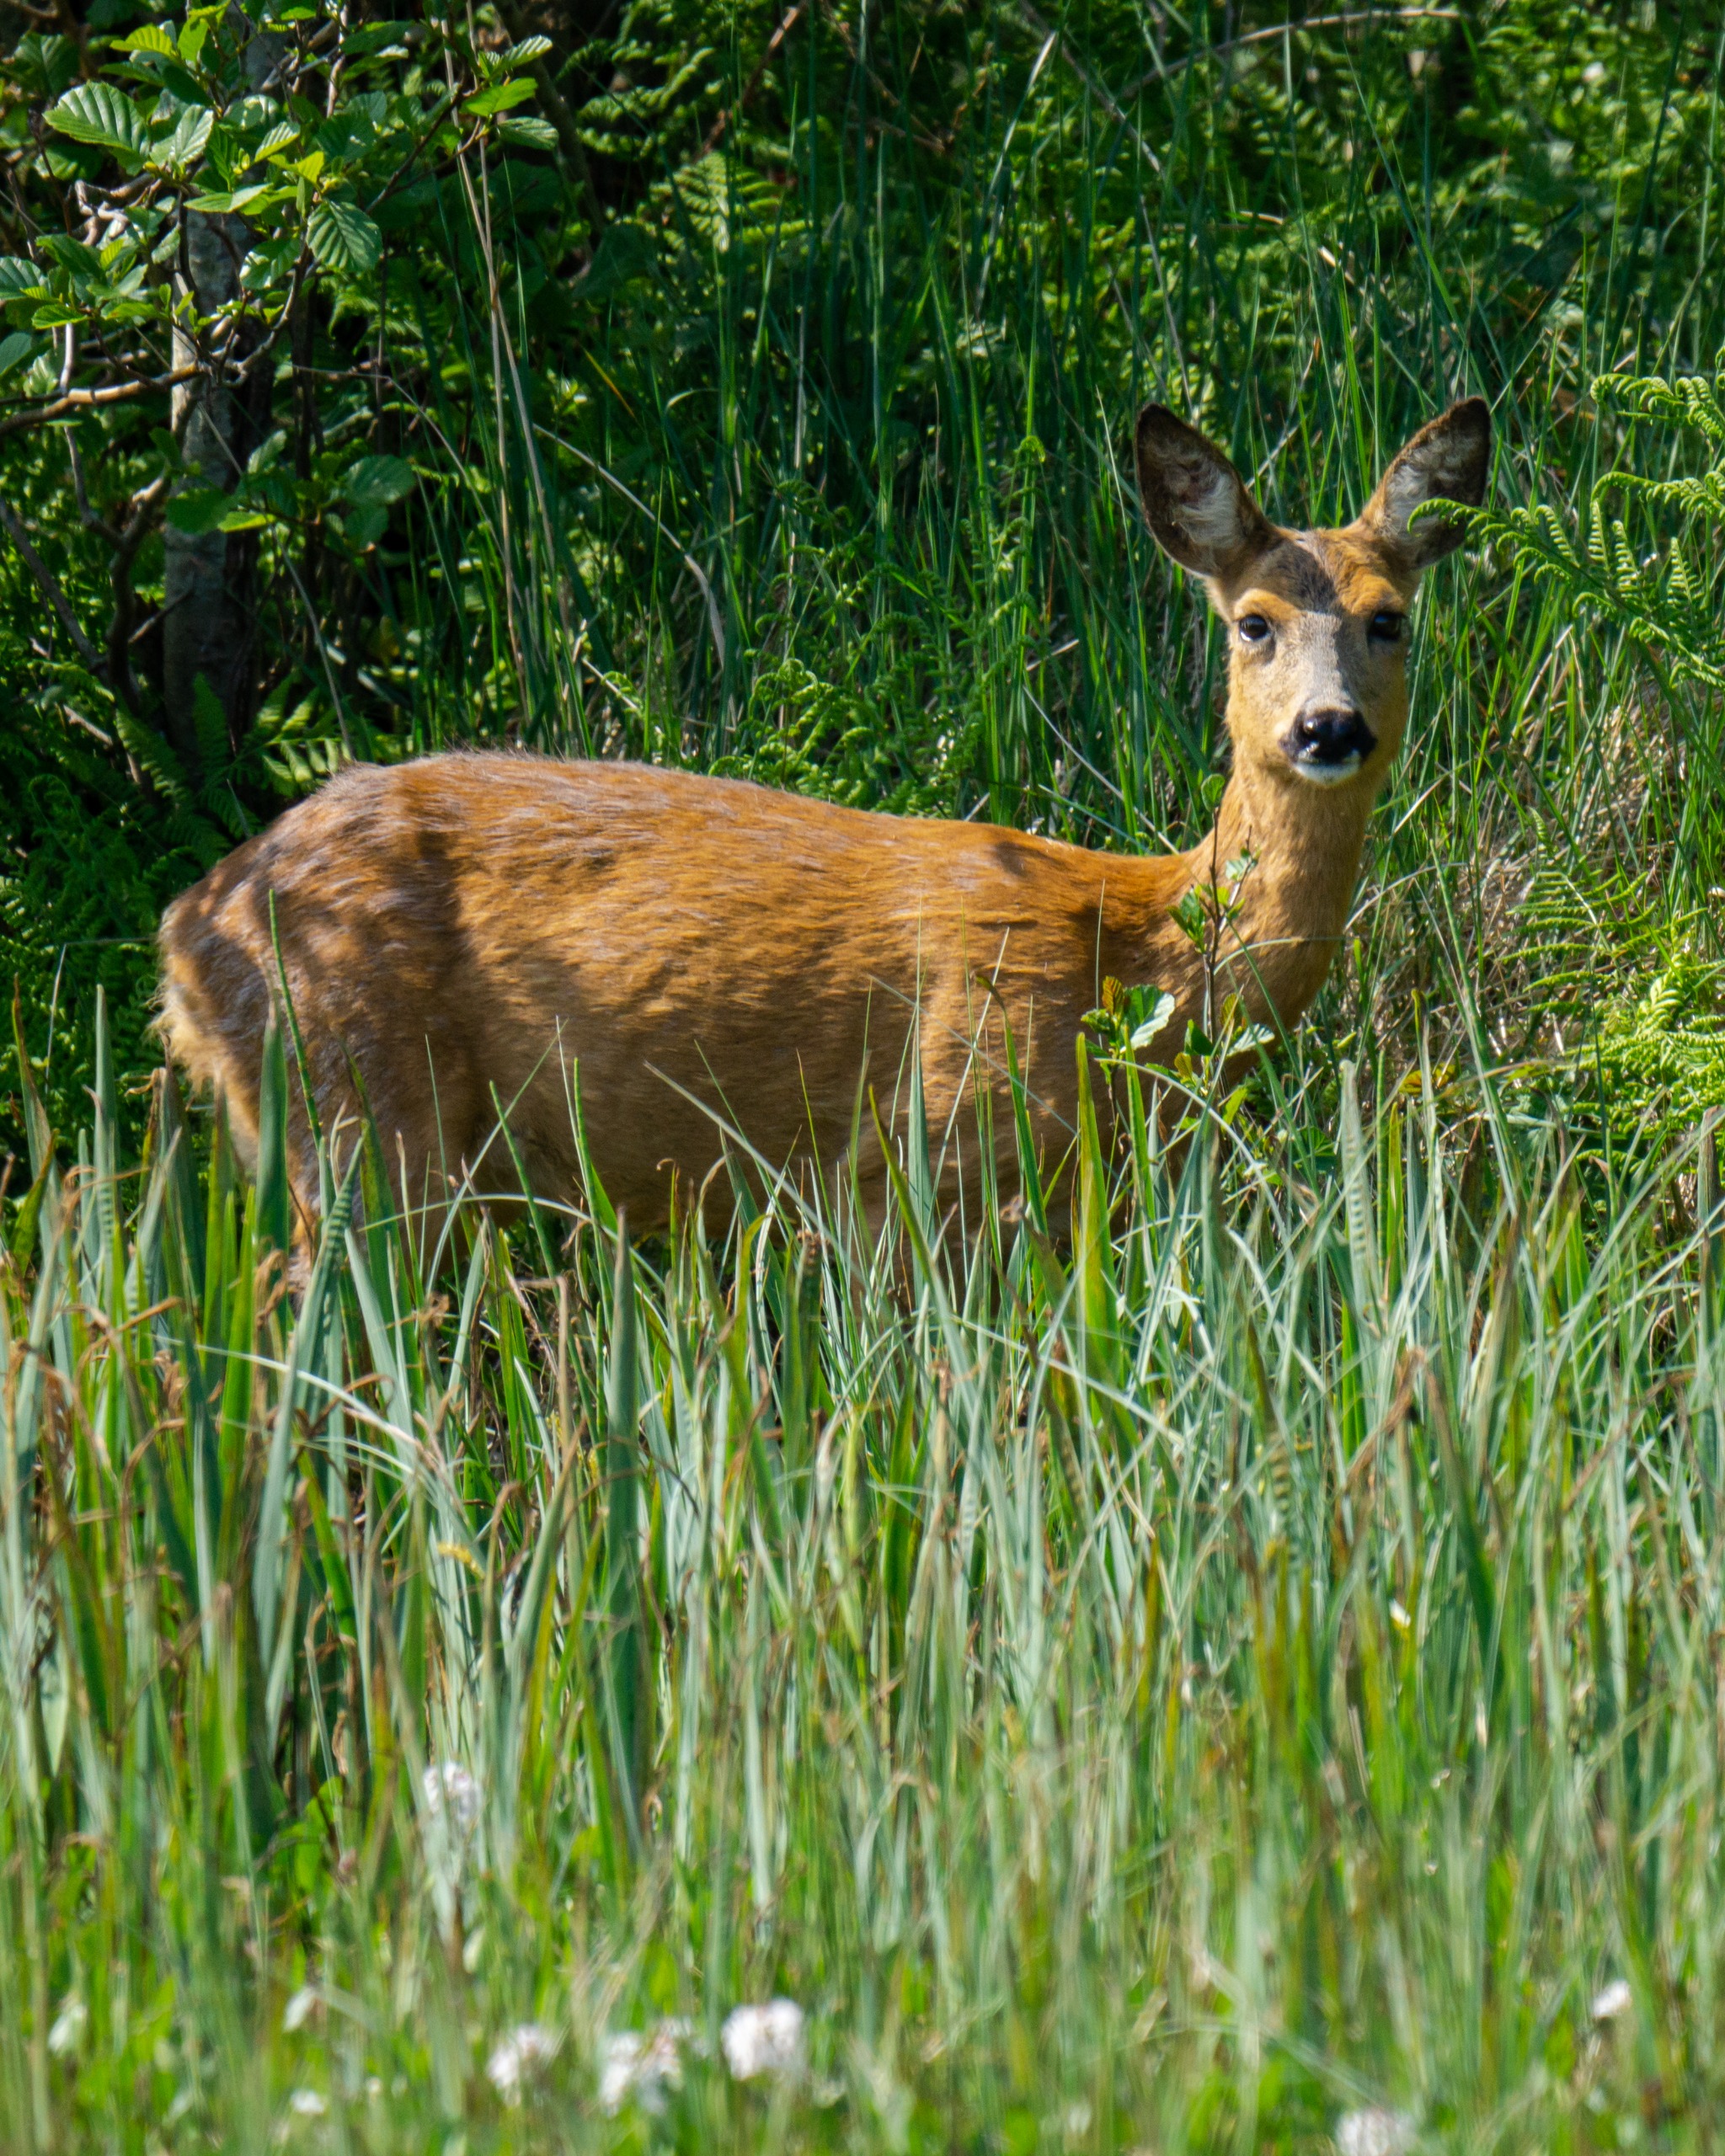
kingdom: Animalia
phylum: Chordata
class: Mammalia
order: Artiodactyla
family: Cervidae
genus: Capreolus
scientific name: Capreolus capreolus
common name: Rådyr
